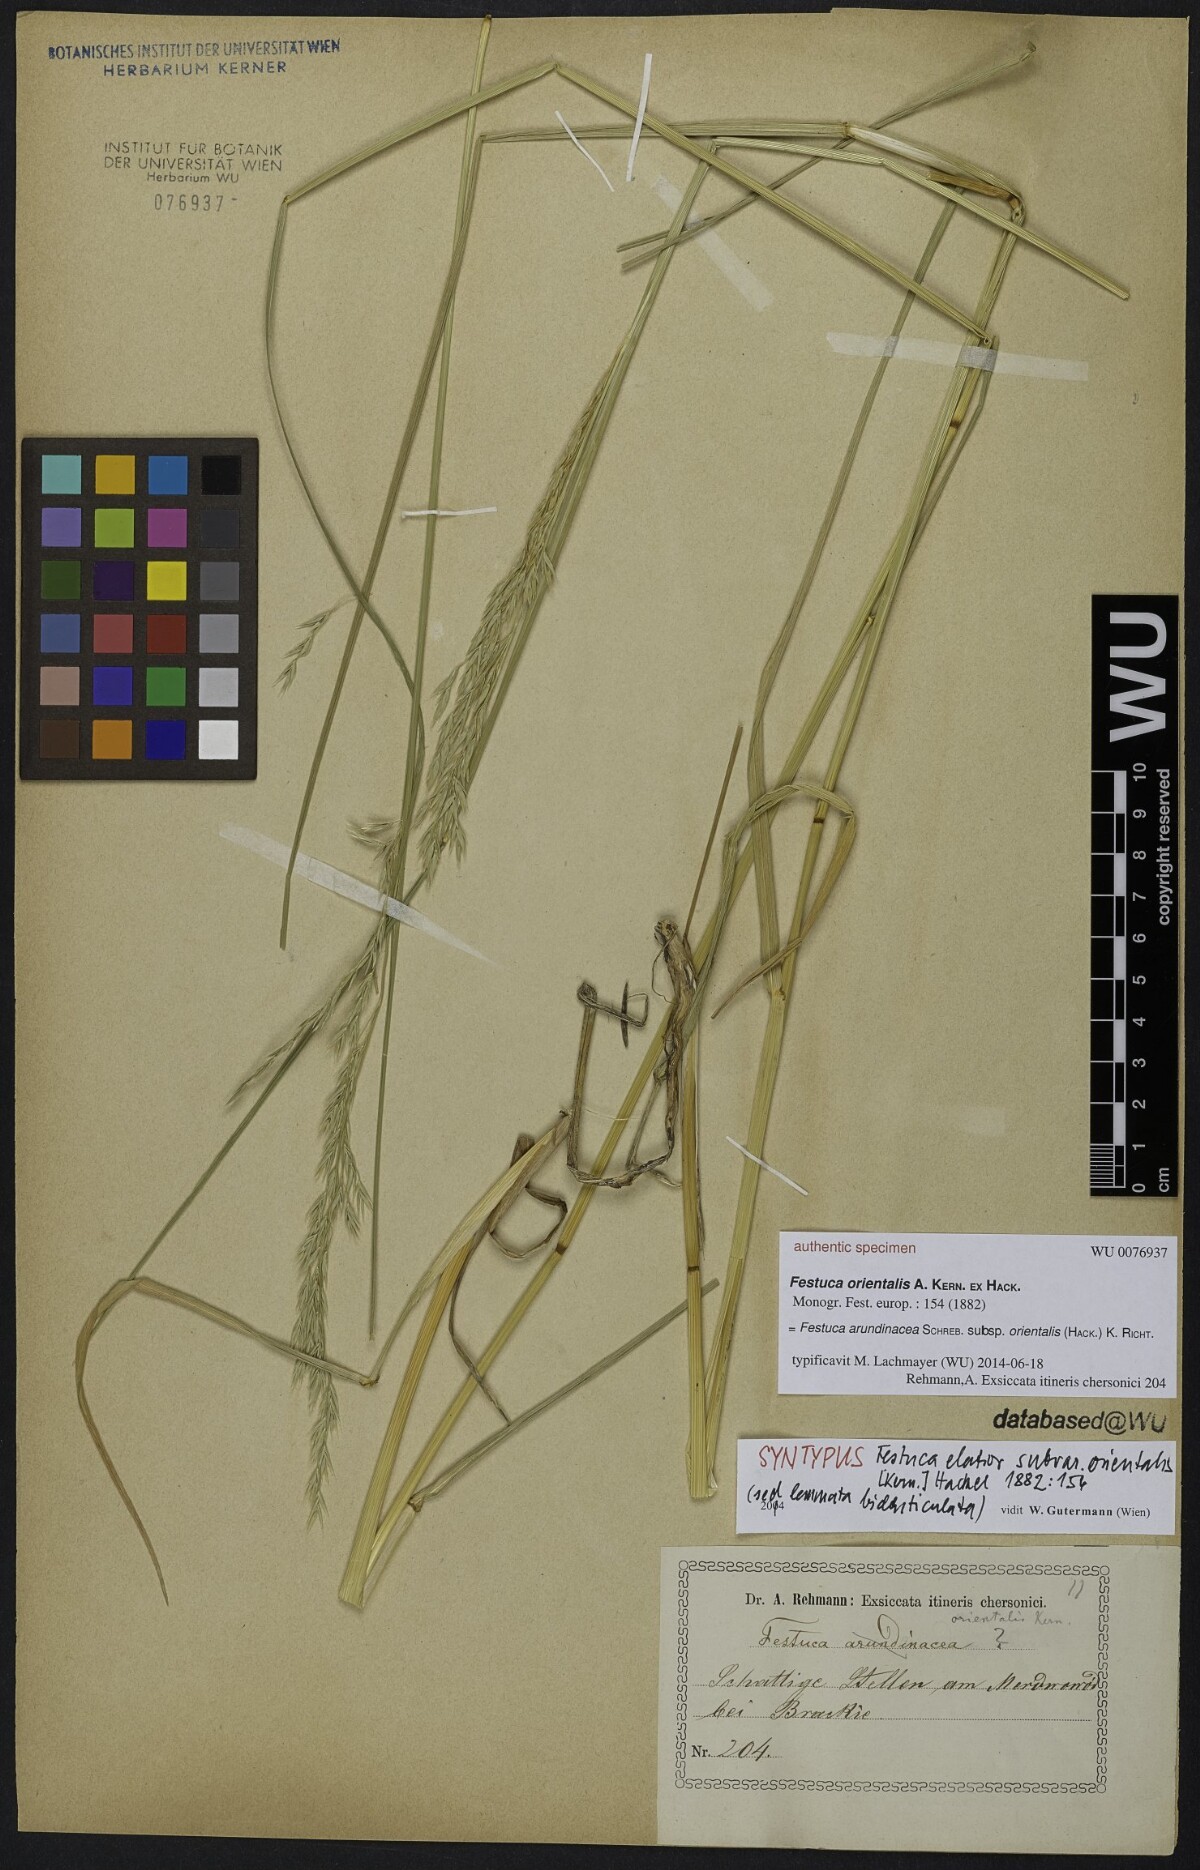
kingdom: Plantae
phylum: Tracheophyta
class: Liliopsida
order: Poales
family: Poaceae
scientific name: Poaceae
